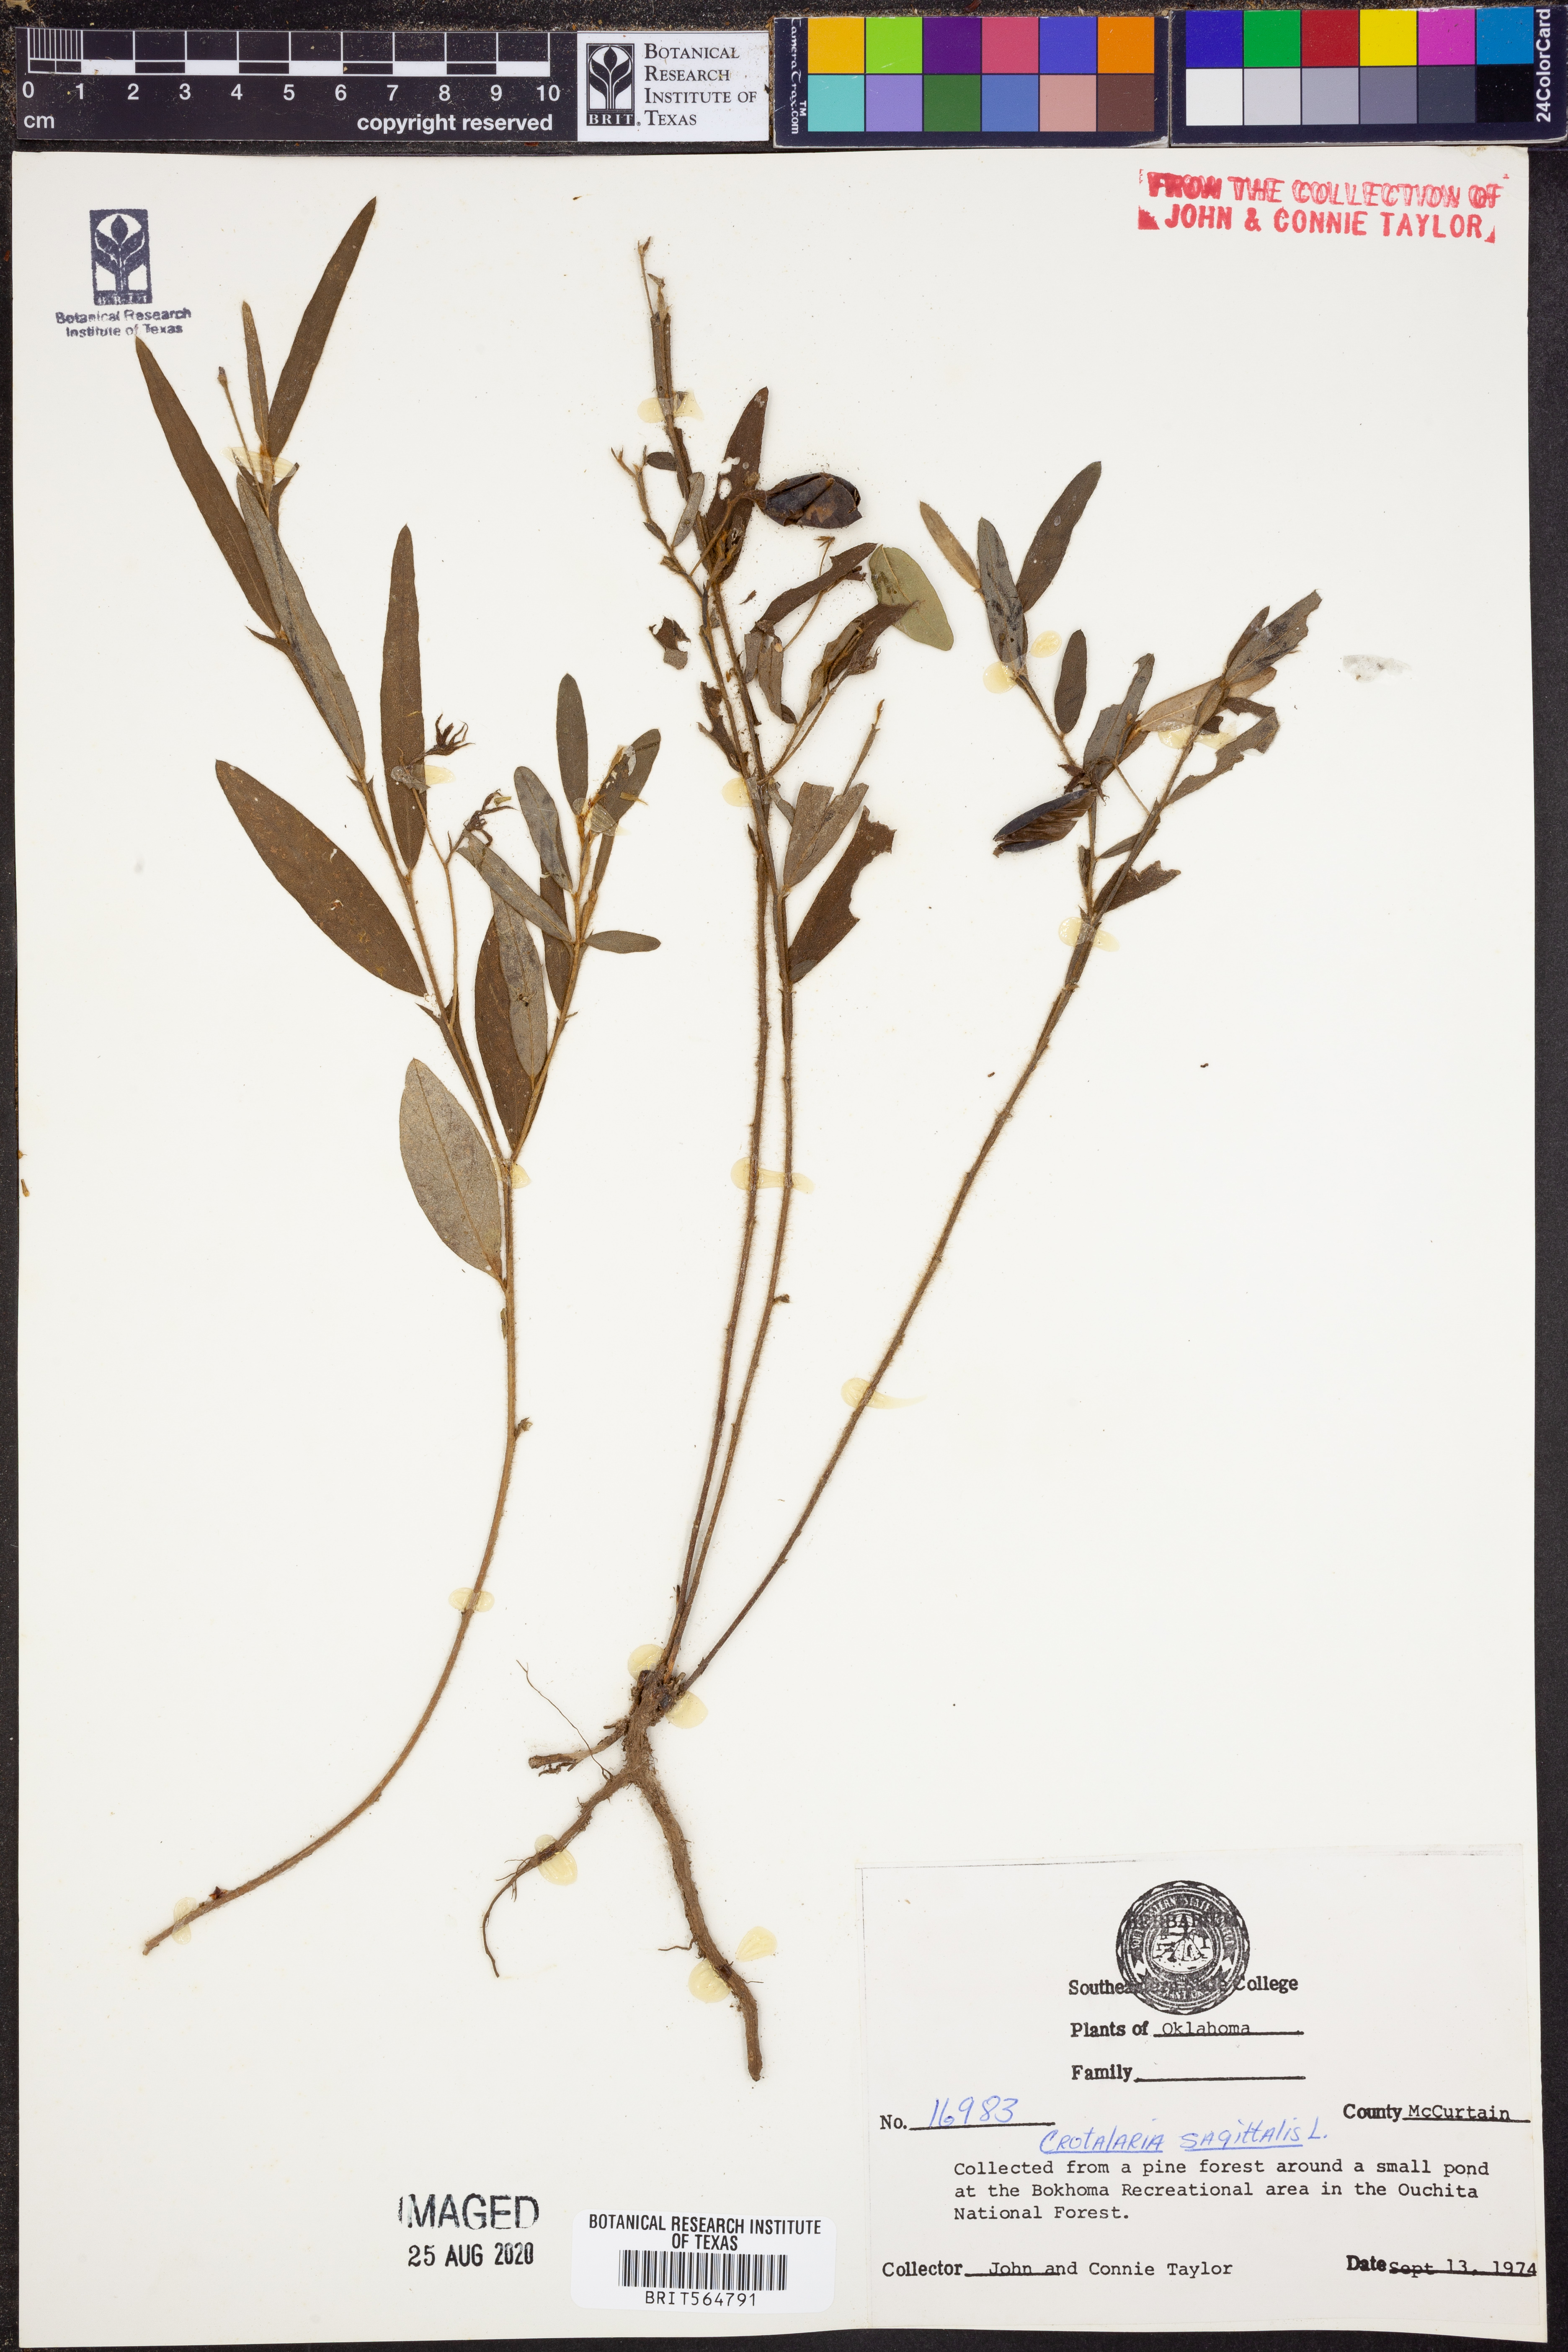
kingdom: Plantae
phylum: Tracheophyta
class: Magnoliopsida
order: Fabales
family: Fabaceae
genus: Crotalaria
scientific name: Crotalaria sagittalis
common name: Arrowhead rattlebox
